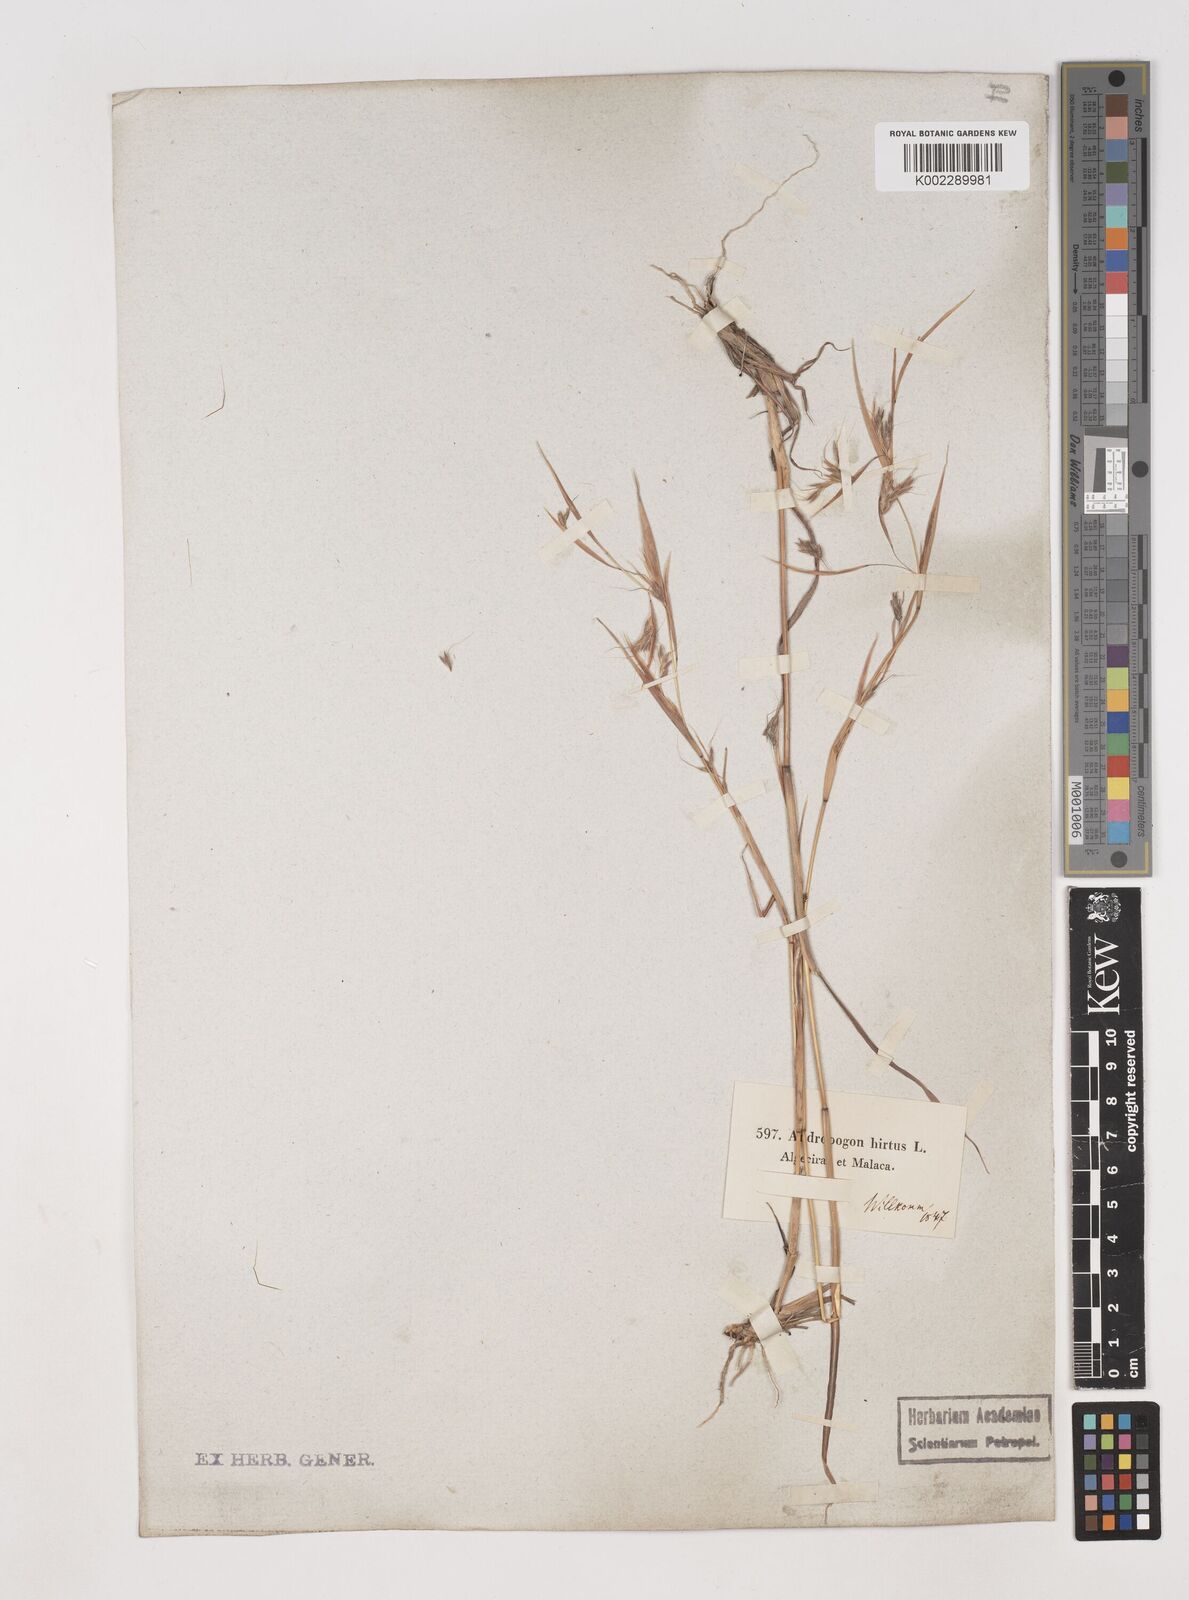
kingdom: Plantae
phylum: Tracheophyta
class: Liliopsida
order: Poales
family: Poaceae
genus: Hyparrhenia
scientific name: Hyparrhenia hirta
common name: Thatching grass
